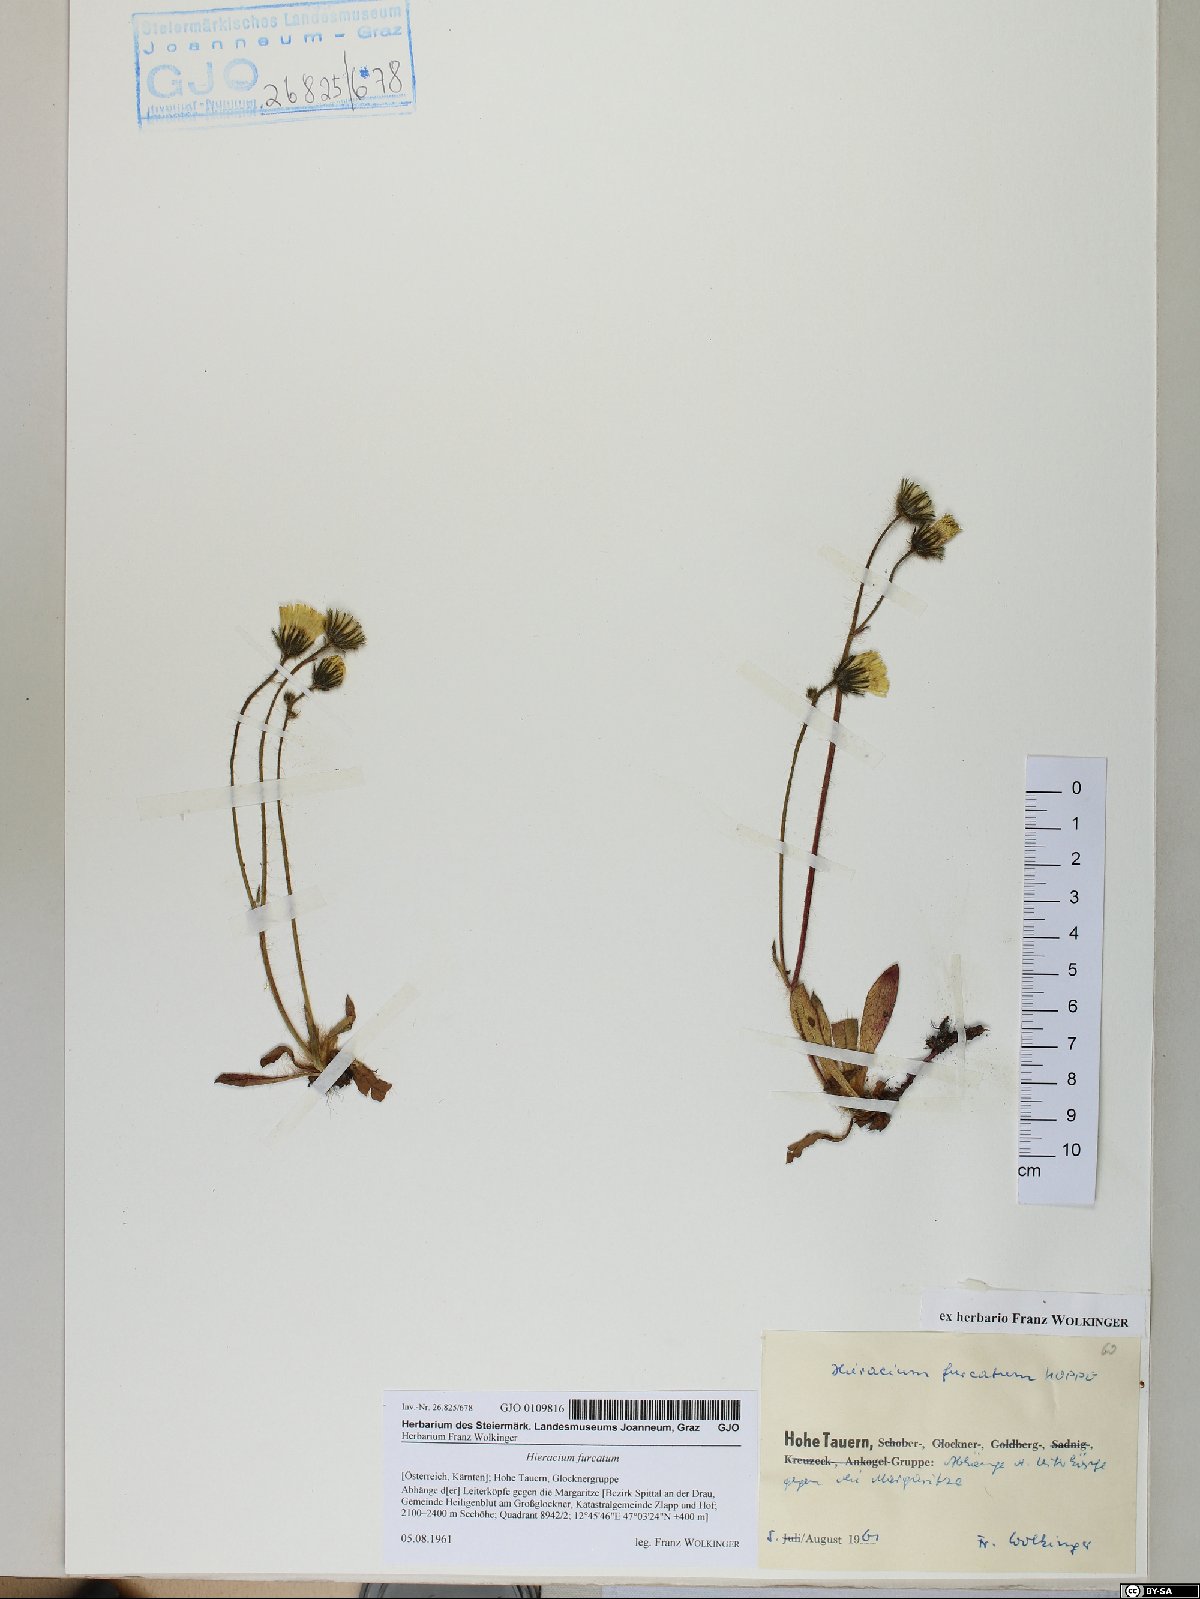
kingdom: Plantae
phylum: Tracheophyta
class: Magnoliopsida
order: Asterales
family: Asteraceae
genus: Pilosella
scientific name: Pilosella sphaerocephala
